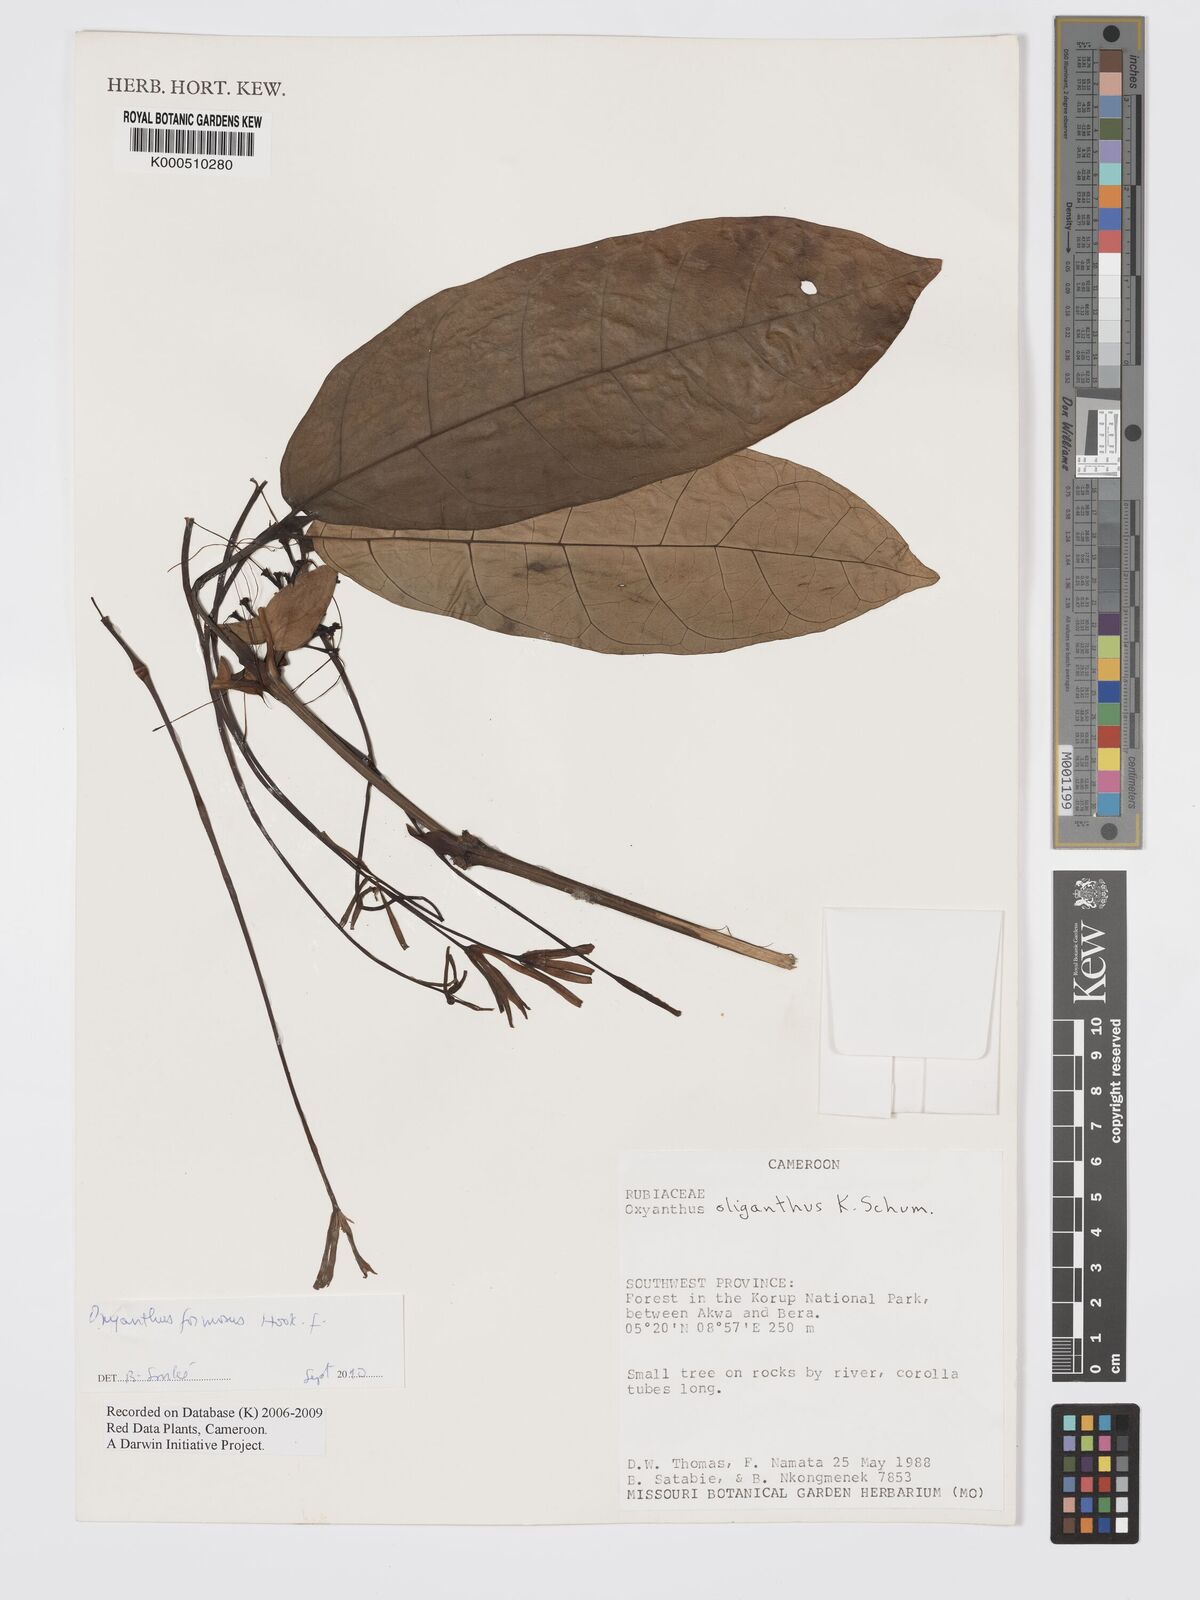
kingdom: Plantae
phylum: Tracheophyta
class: Magnoliopsida
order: Gentianales
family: Rubiaceae
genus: Oxyanthus
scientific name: Oxyanthus
